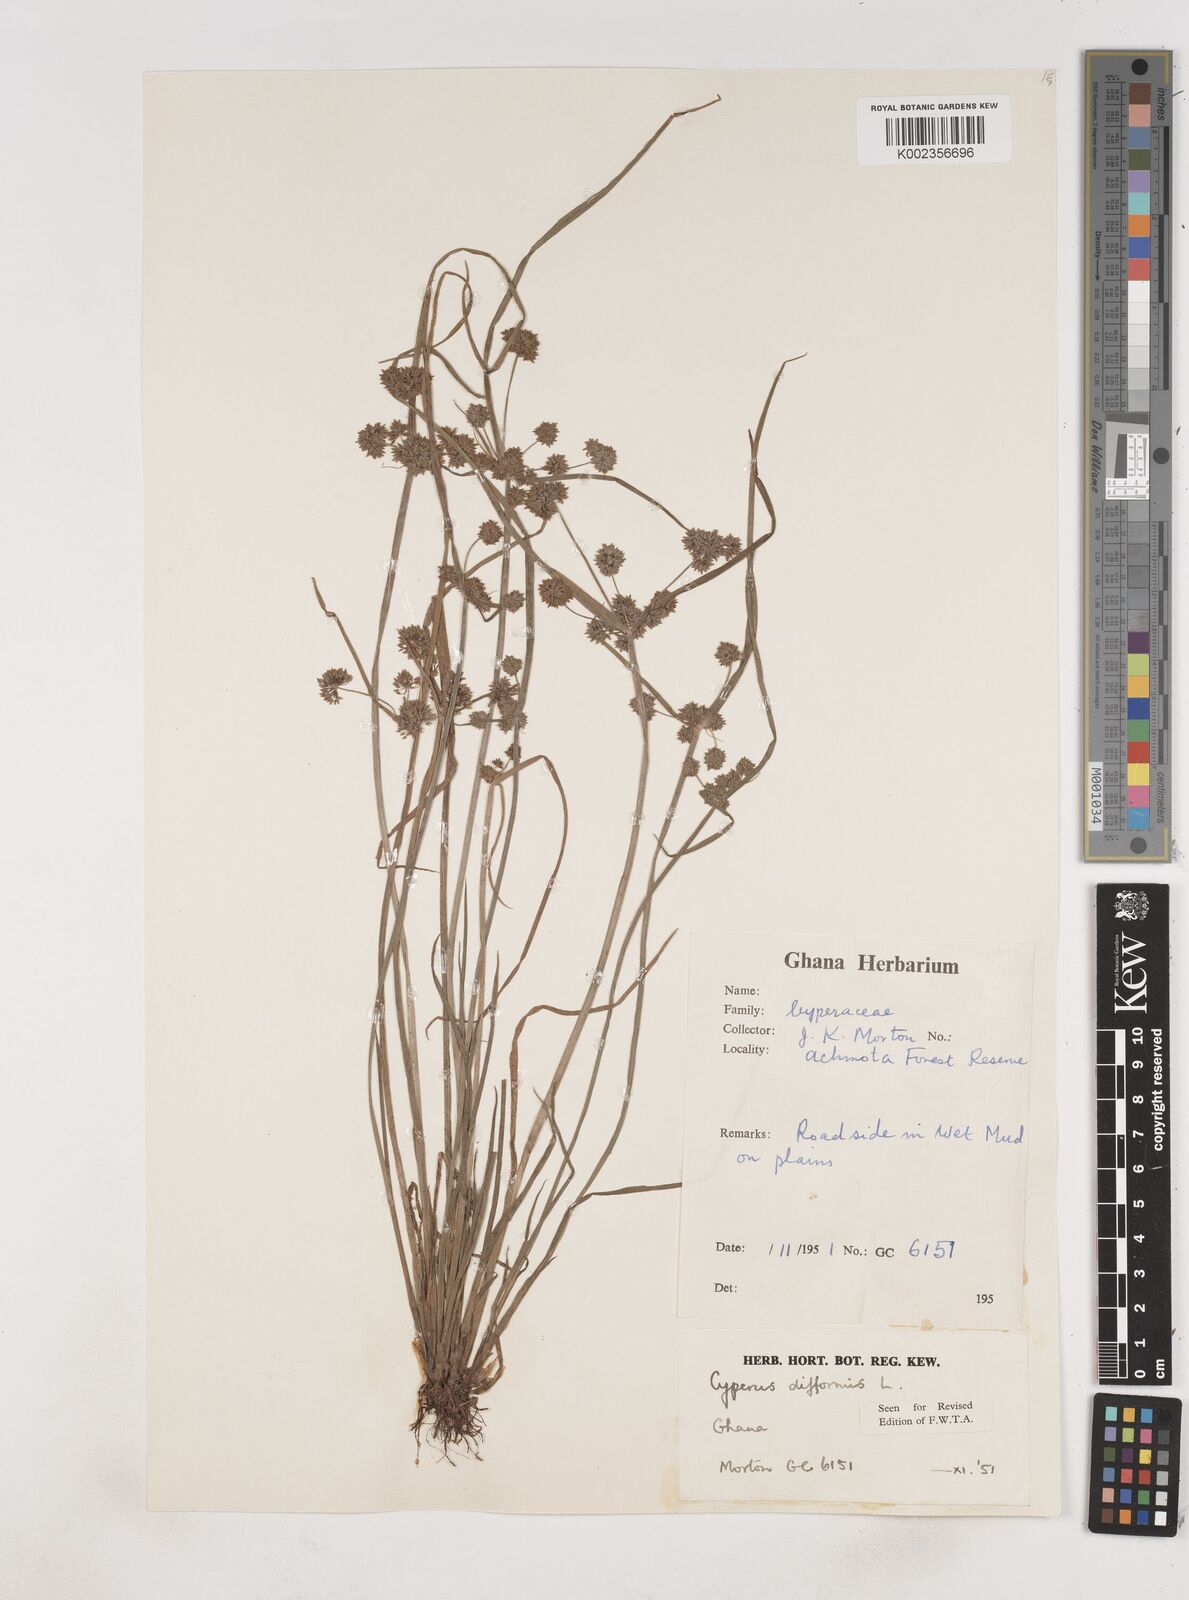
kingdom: Plantae
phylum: Tracheophyta
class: Liliopsida
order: Poales
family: Cyperaceae
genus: Cyperus
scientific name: Cyperus difformis
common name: Variable flatsedge
